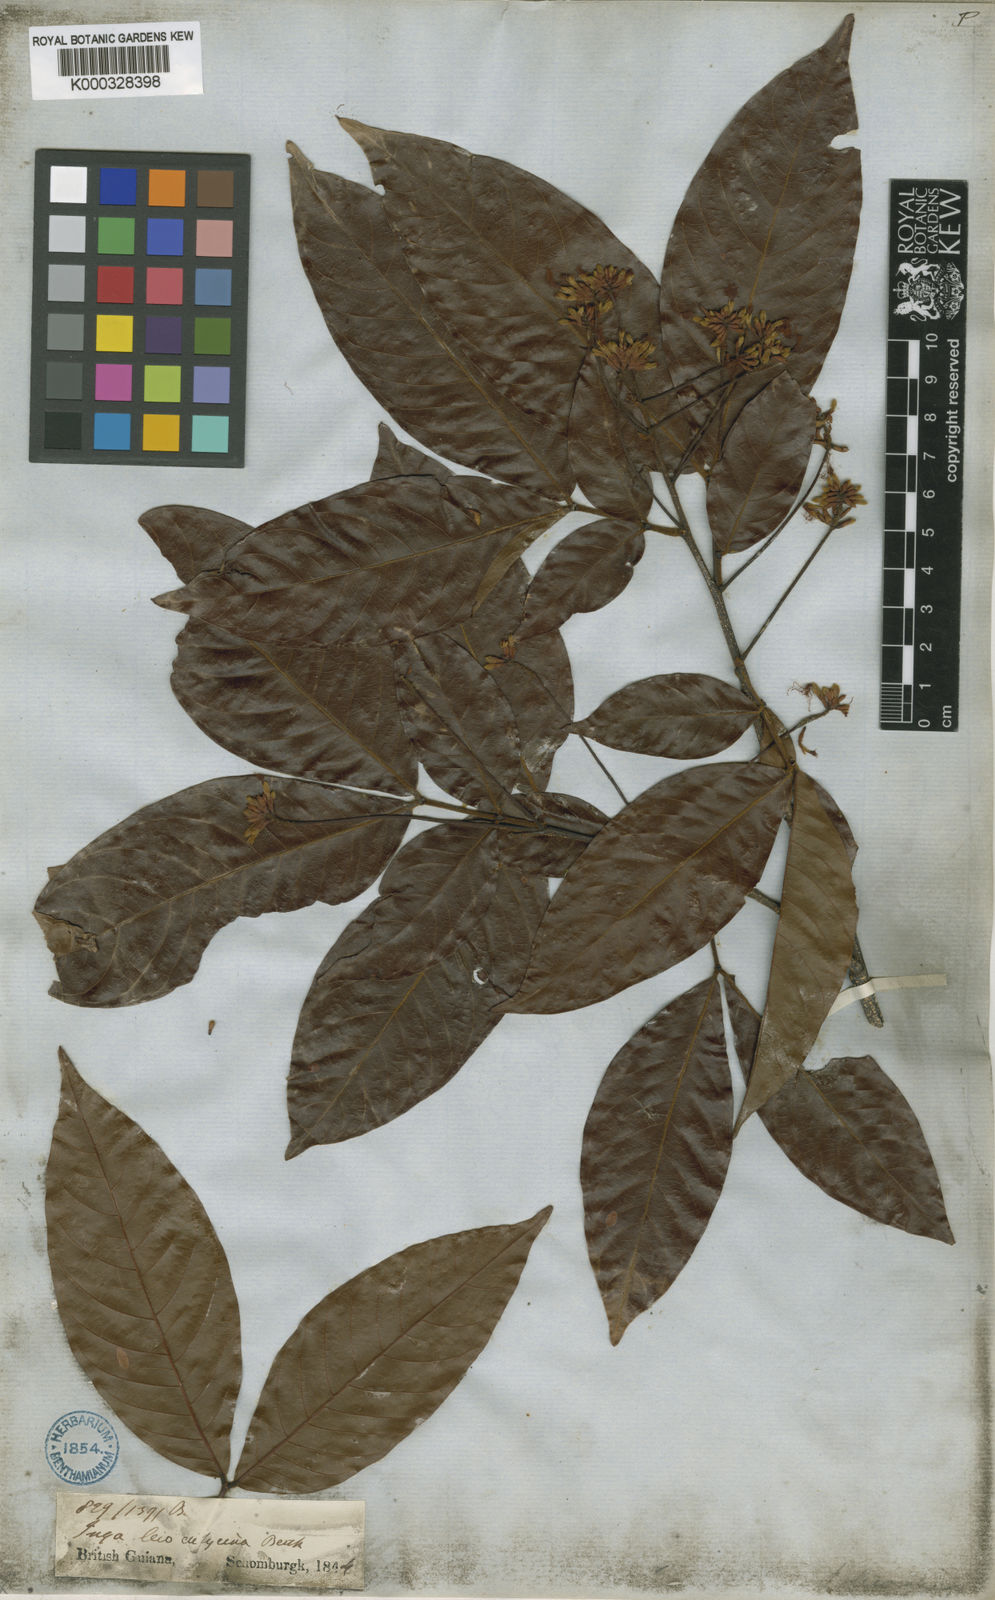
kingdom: Plantae
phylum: Tracheophyta
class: Magnoliopsida
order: Fabales
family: Fabaceae
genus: Inga
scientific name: Inga laevigata
